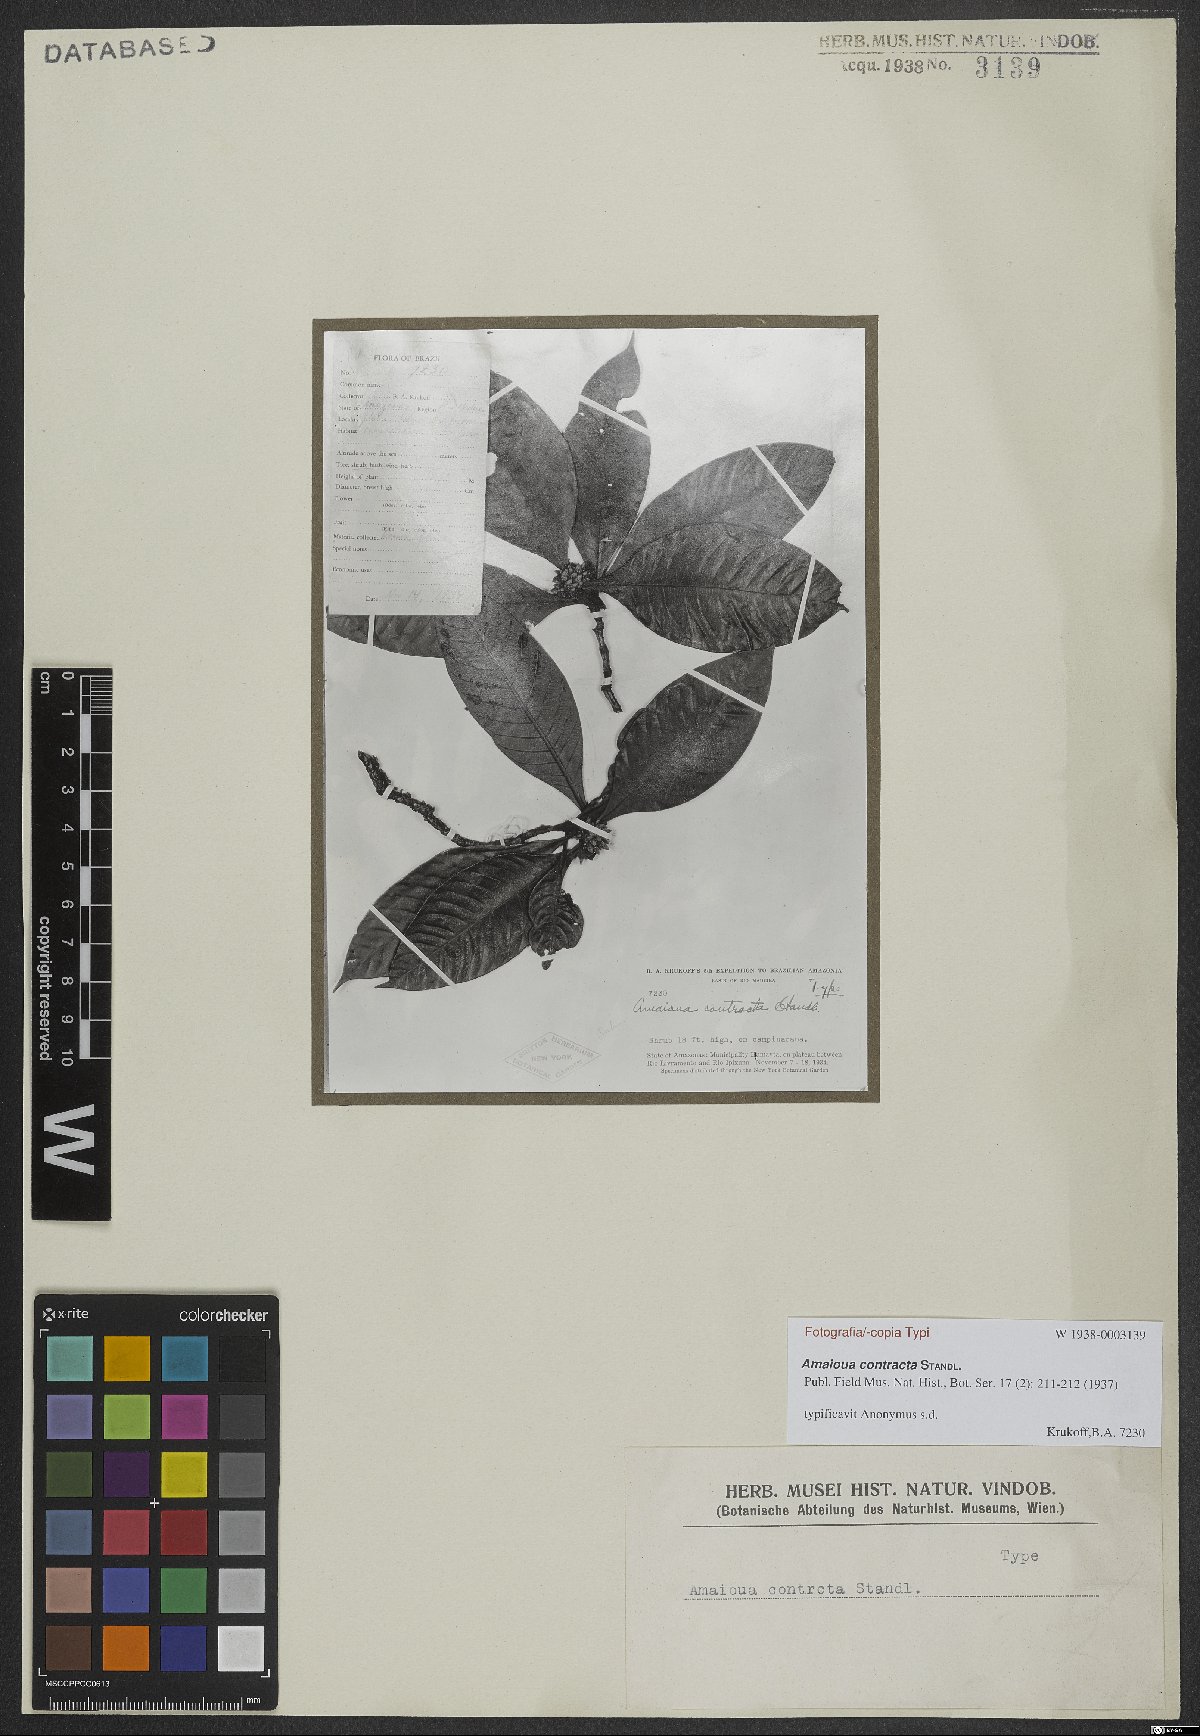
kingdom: Plantae
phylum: Tracheophyta
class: Magnoliopsida
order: Gentianales
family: Rubiaceae
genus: Amaioua
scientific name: Amaioua contracta
